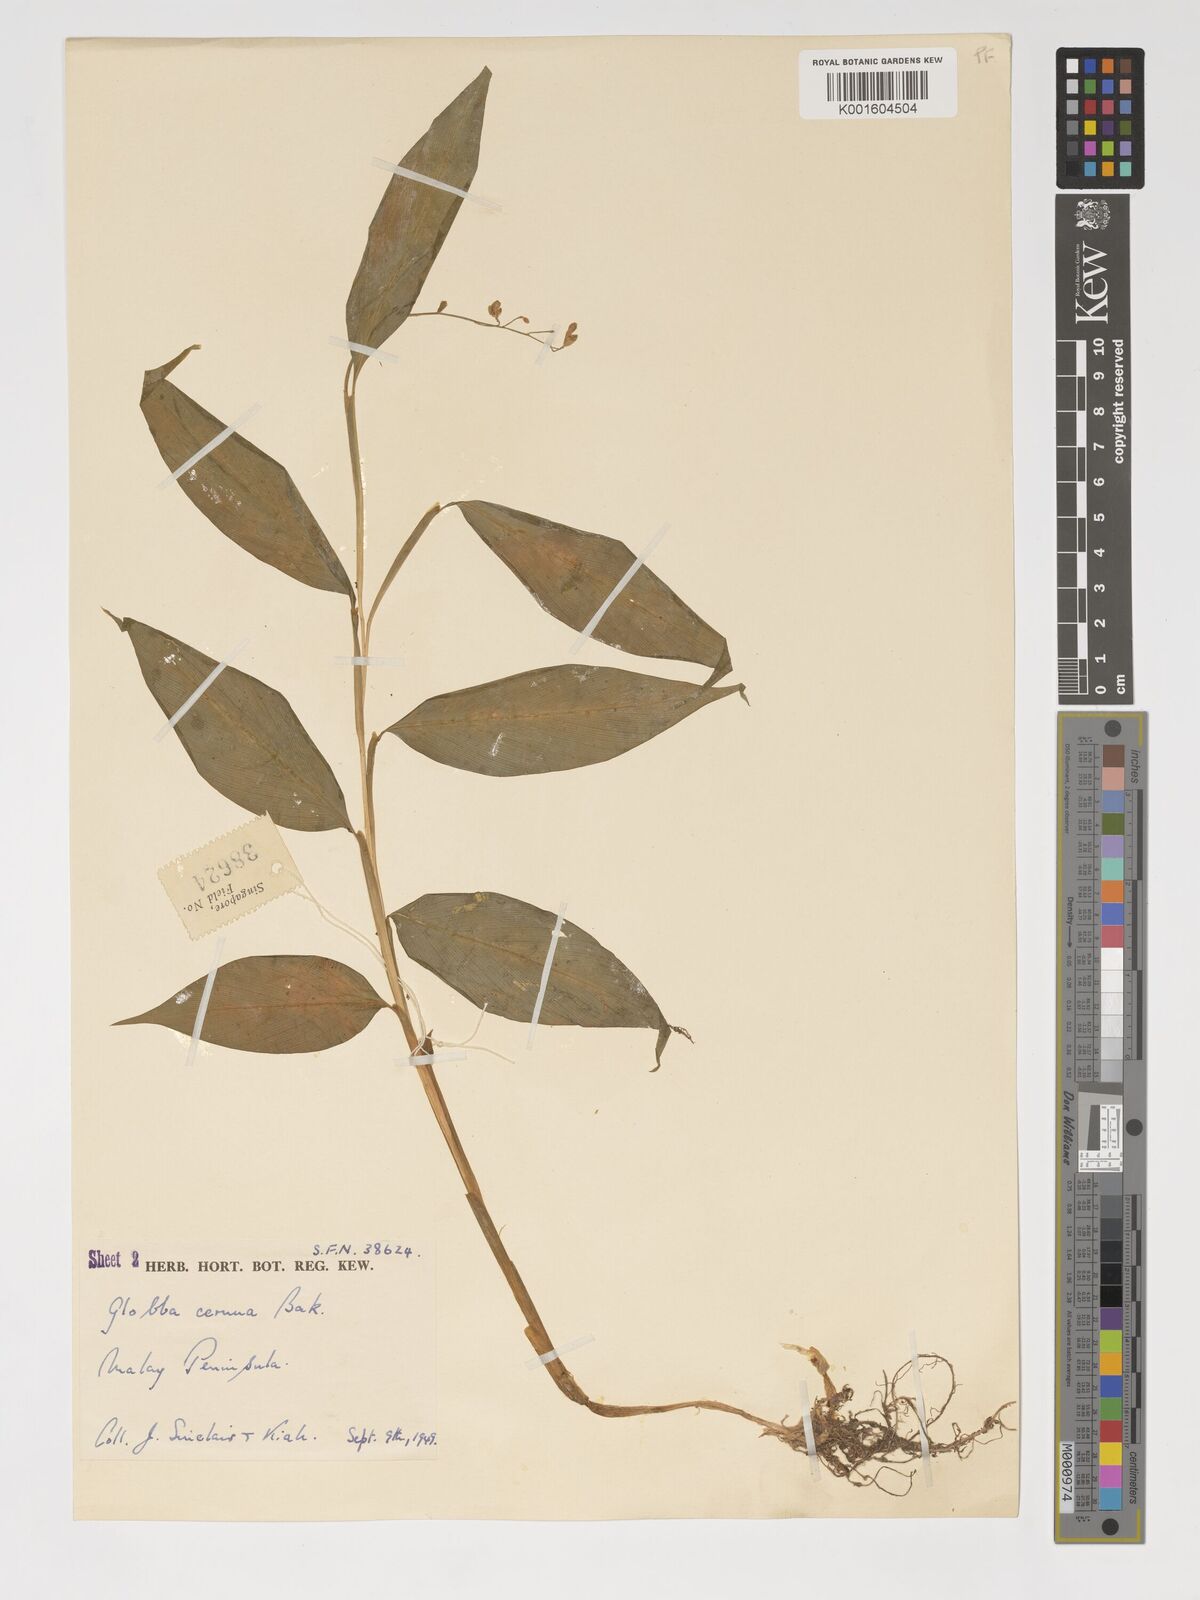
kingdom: Plantae
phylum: Tracheophyta
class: Liliopsida
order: Zingiberales
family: Zingiberaceae
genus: Globba
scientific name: Globba cernua
